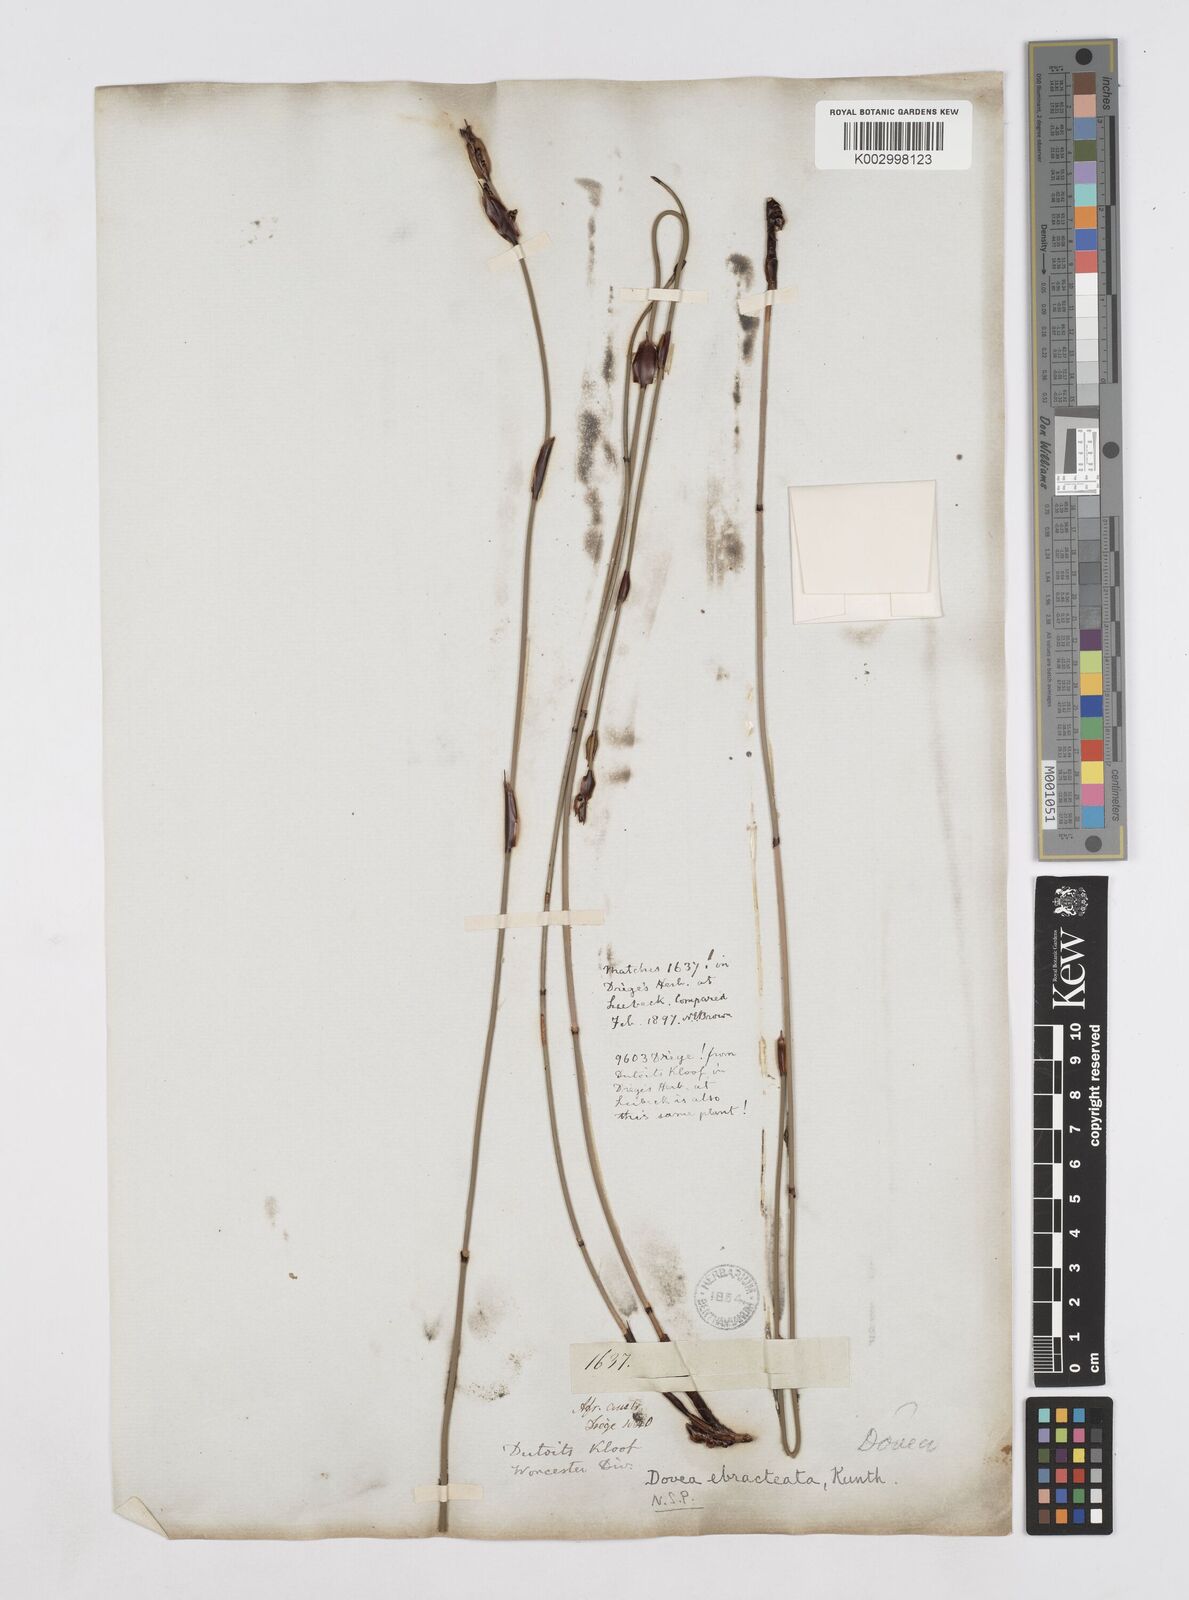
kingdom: Plantae
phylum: Tracheophyta
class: Liliopsida
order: Poales
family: Restionaceae
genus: Elegia
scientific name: Elegia ebracteata
